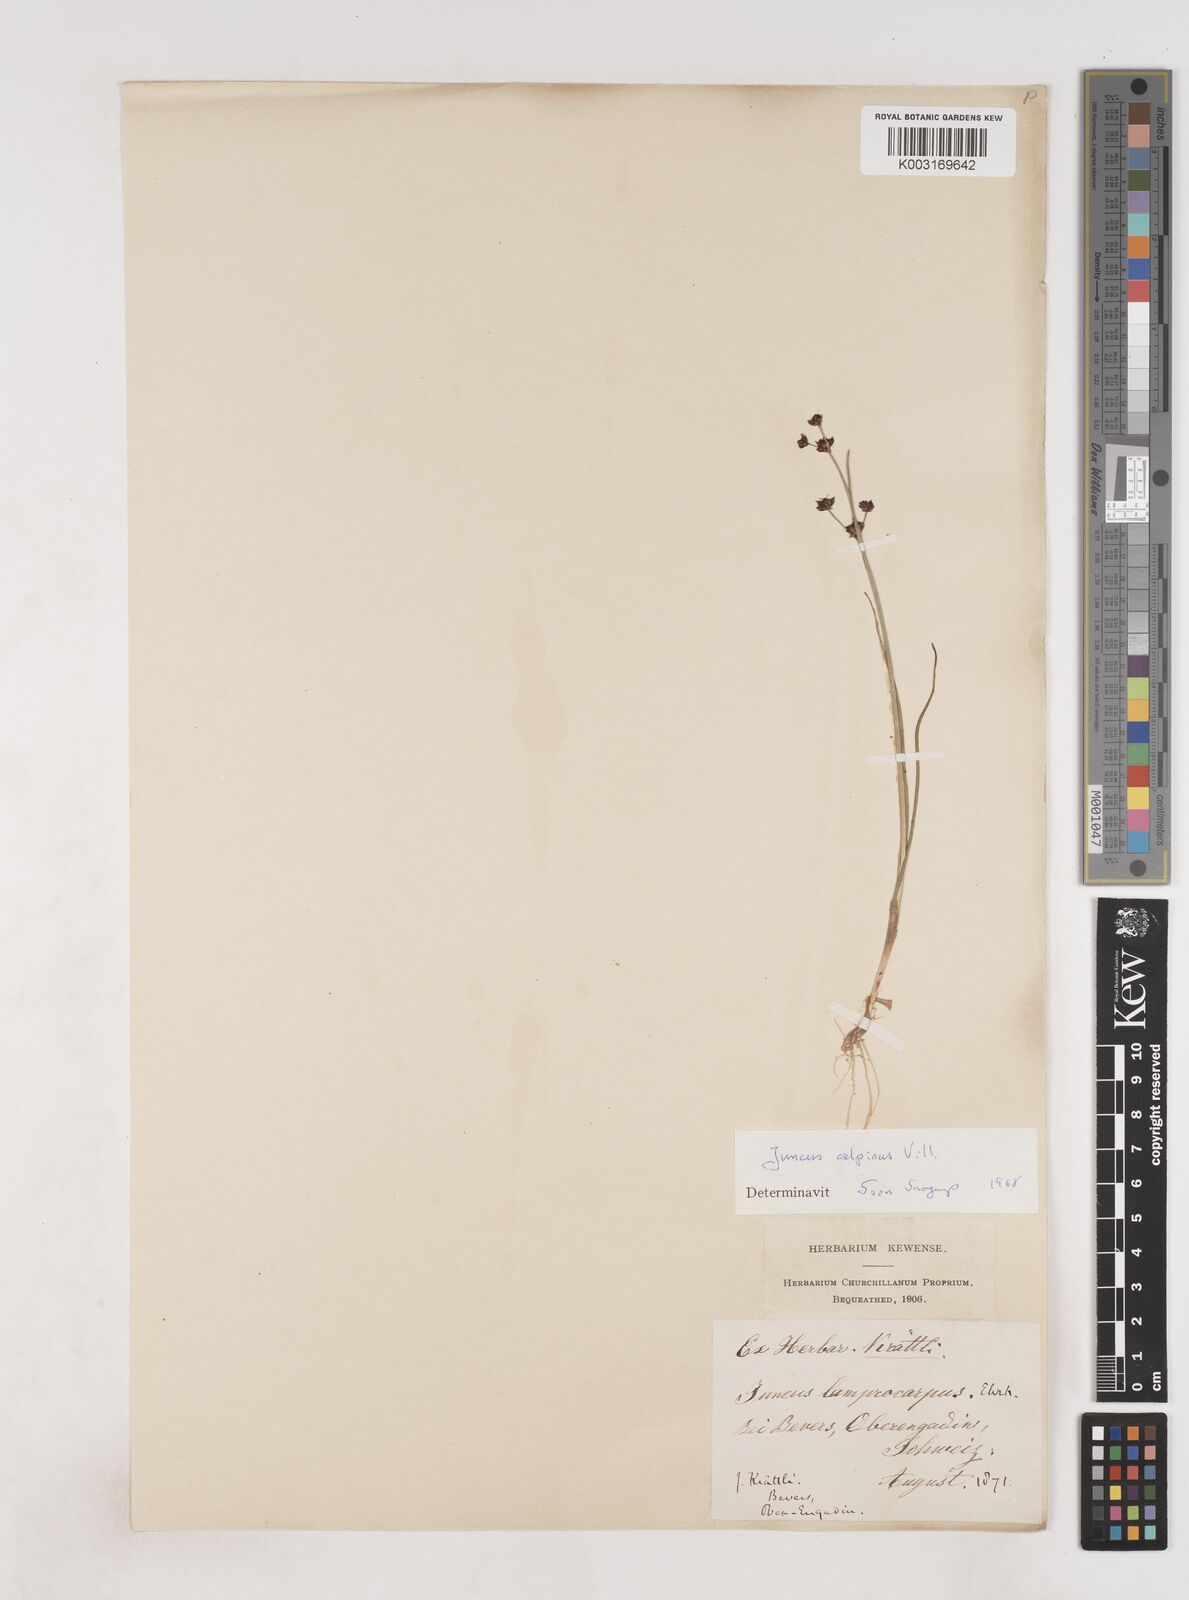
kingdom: Plantae
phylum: Tracheophyta
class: Liliopsida
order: Poales
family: Juncaceae
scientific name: Juncaceae
